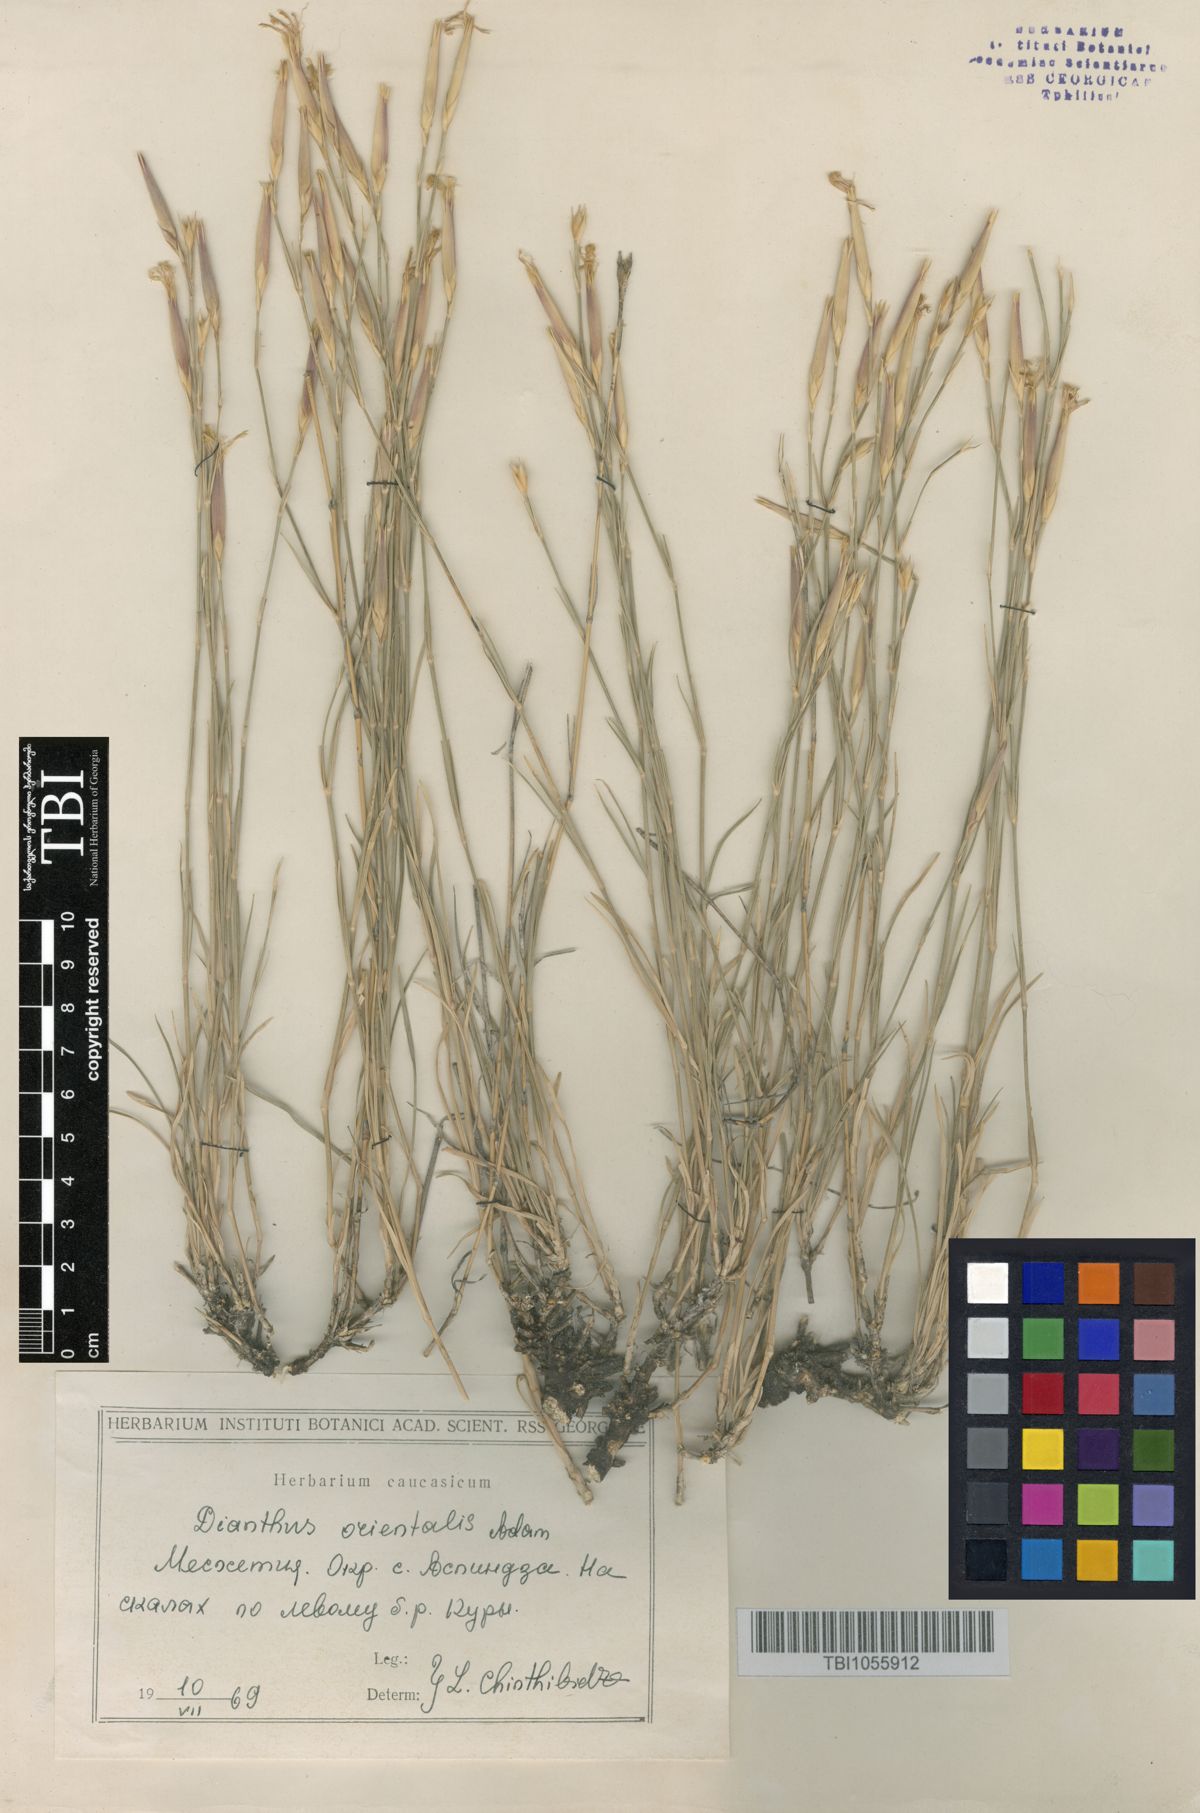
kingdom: Plantae
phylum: Tracheophyta
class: Magnoliopsida
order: Caryophyllales
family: Caryophyllaceae
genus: Dianthus
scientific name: Dianthus orientalis
